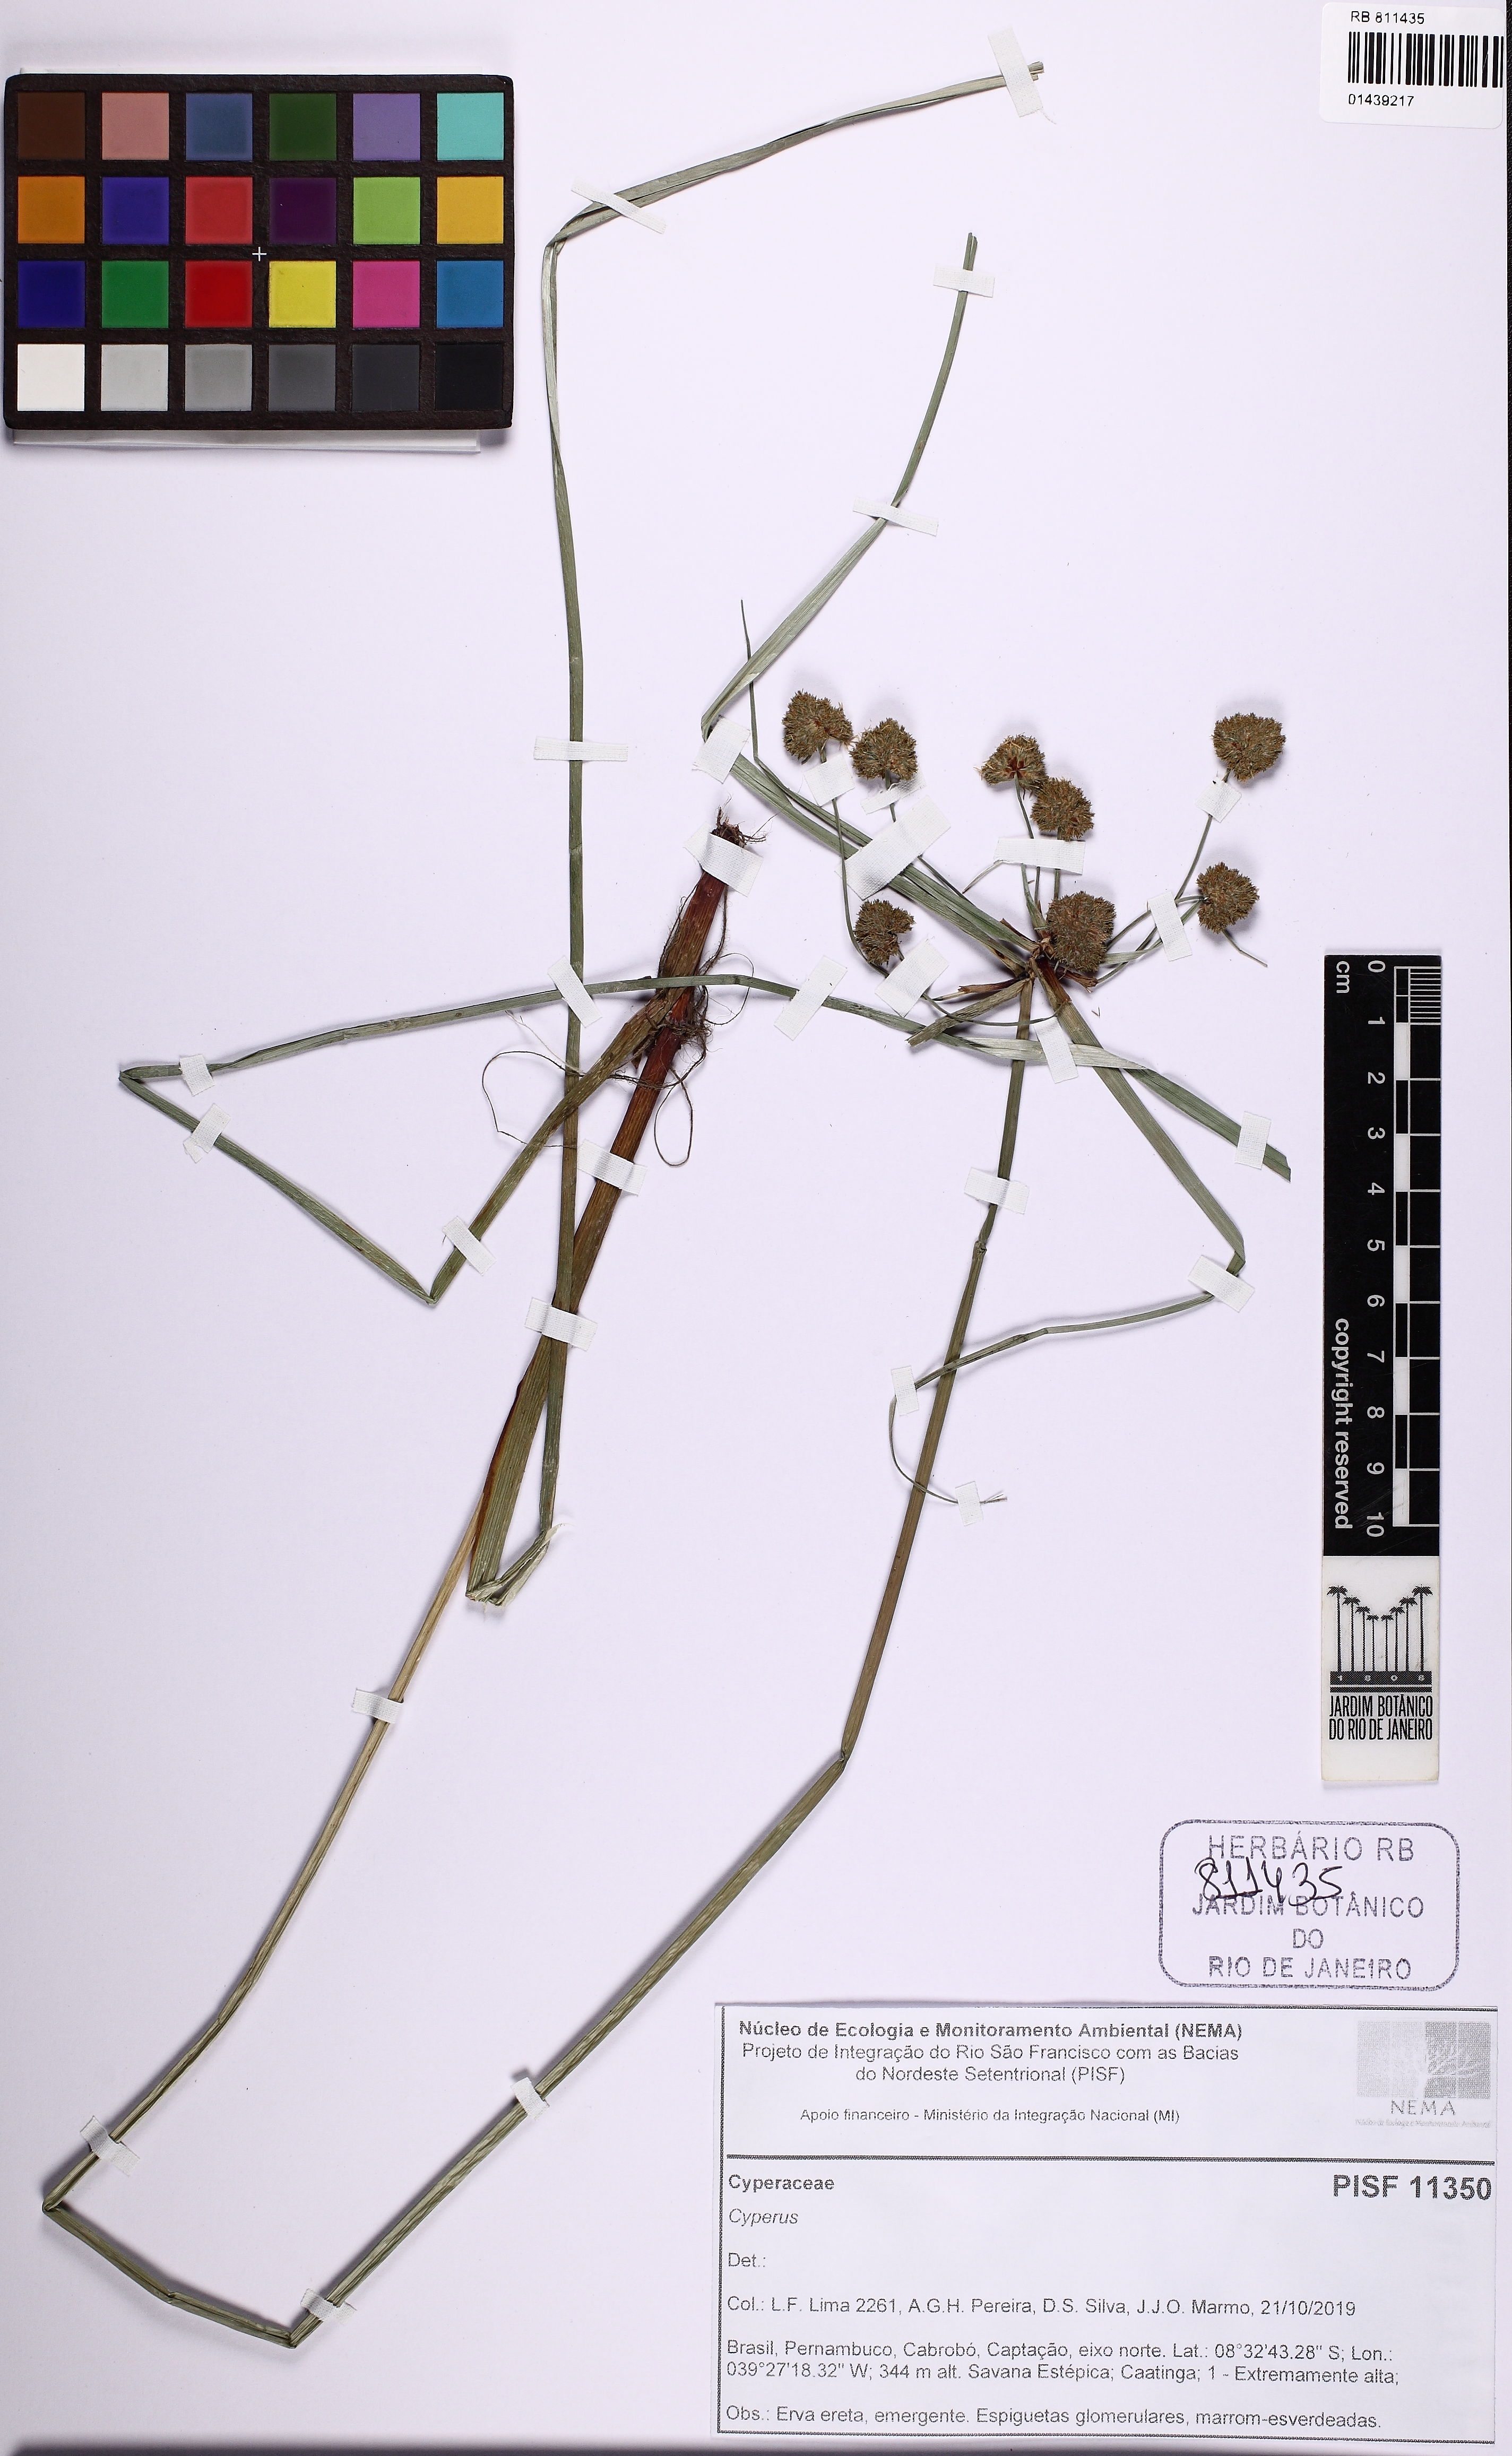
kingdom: Plantae
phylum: Tracheophyta
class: Liliopsida
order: Poales
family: Cyperaceae
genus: Cyperus
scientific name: Cyperus blepharoleptos
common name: Cuban bulrush
